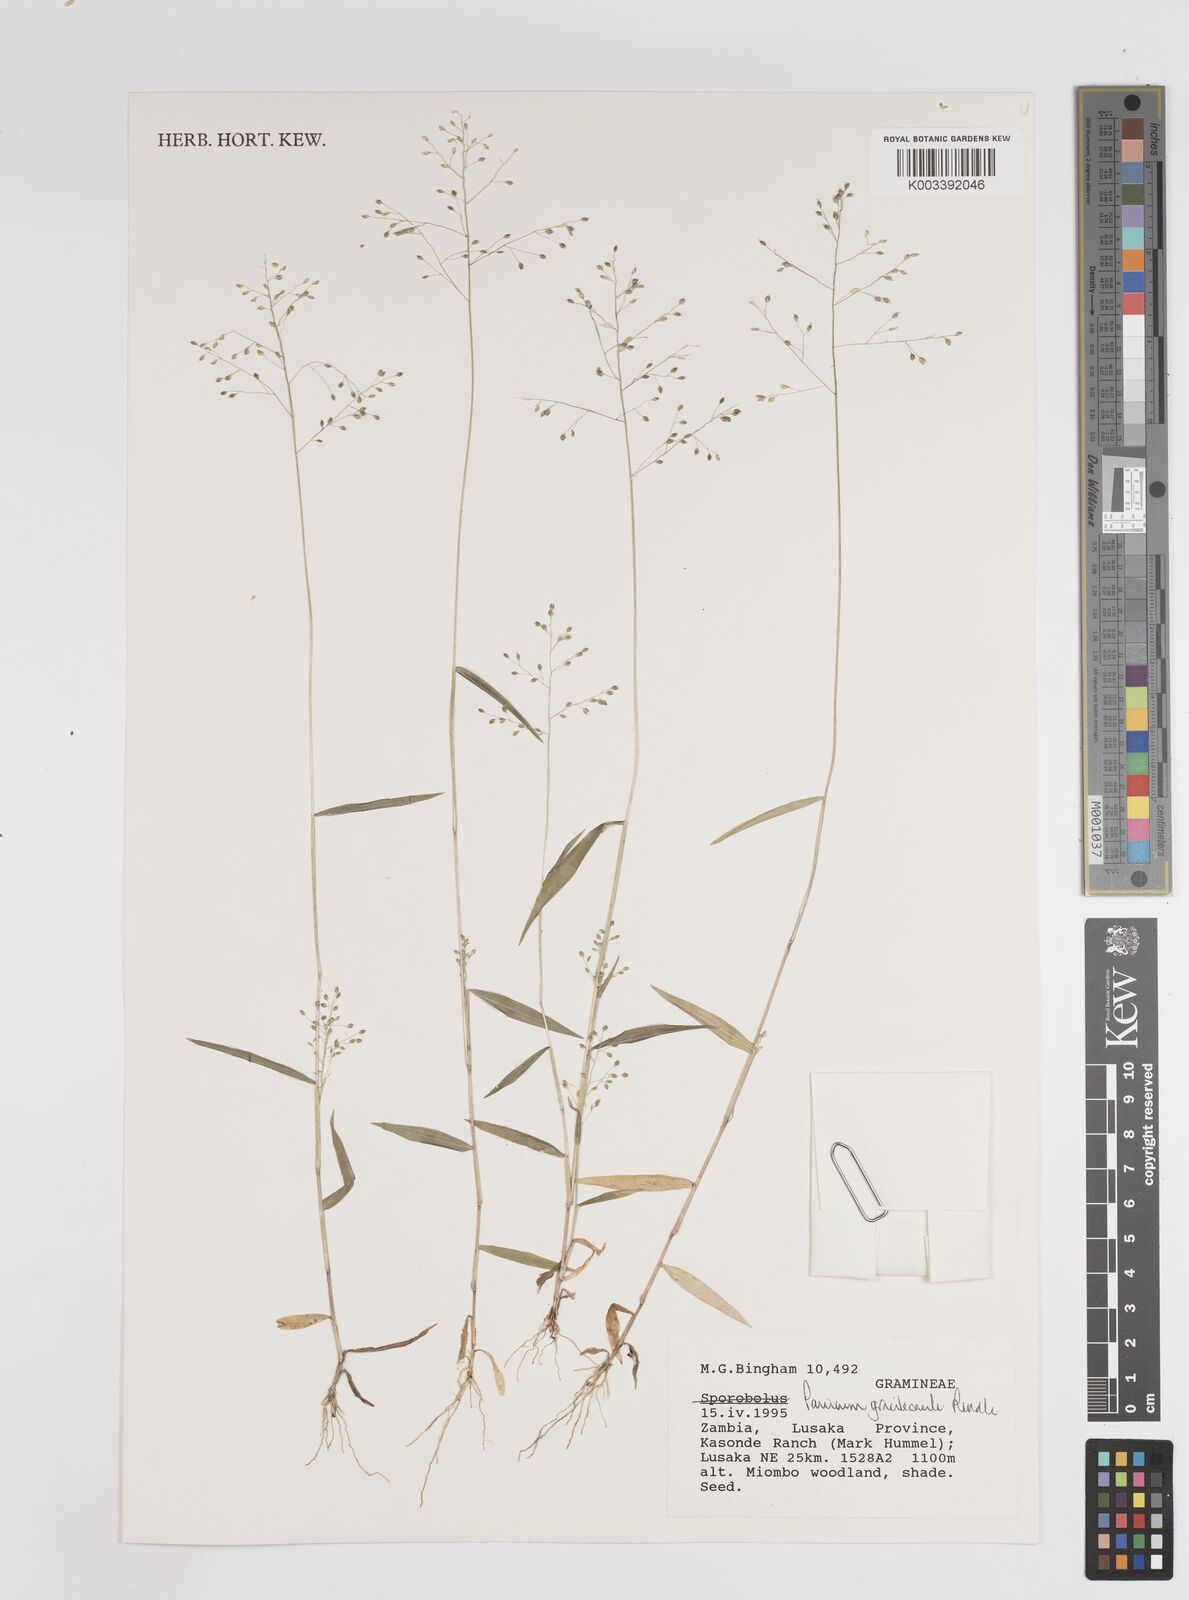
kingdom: Plantae
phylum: Tracheophyta
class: Liliopsida
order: Poales
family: Poaceae
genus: Trichanthecium
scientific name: Trichanthecium gracilicaule
